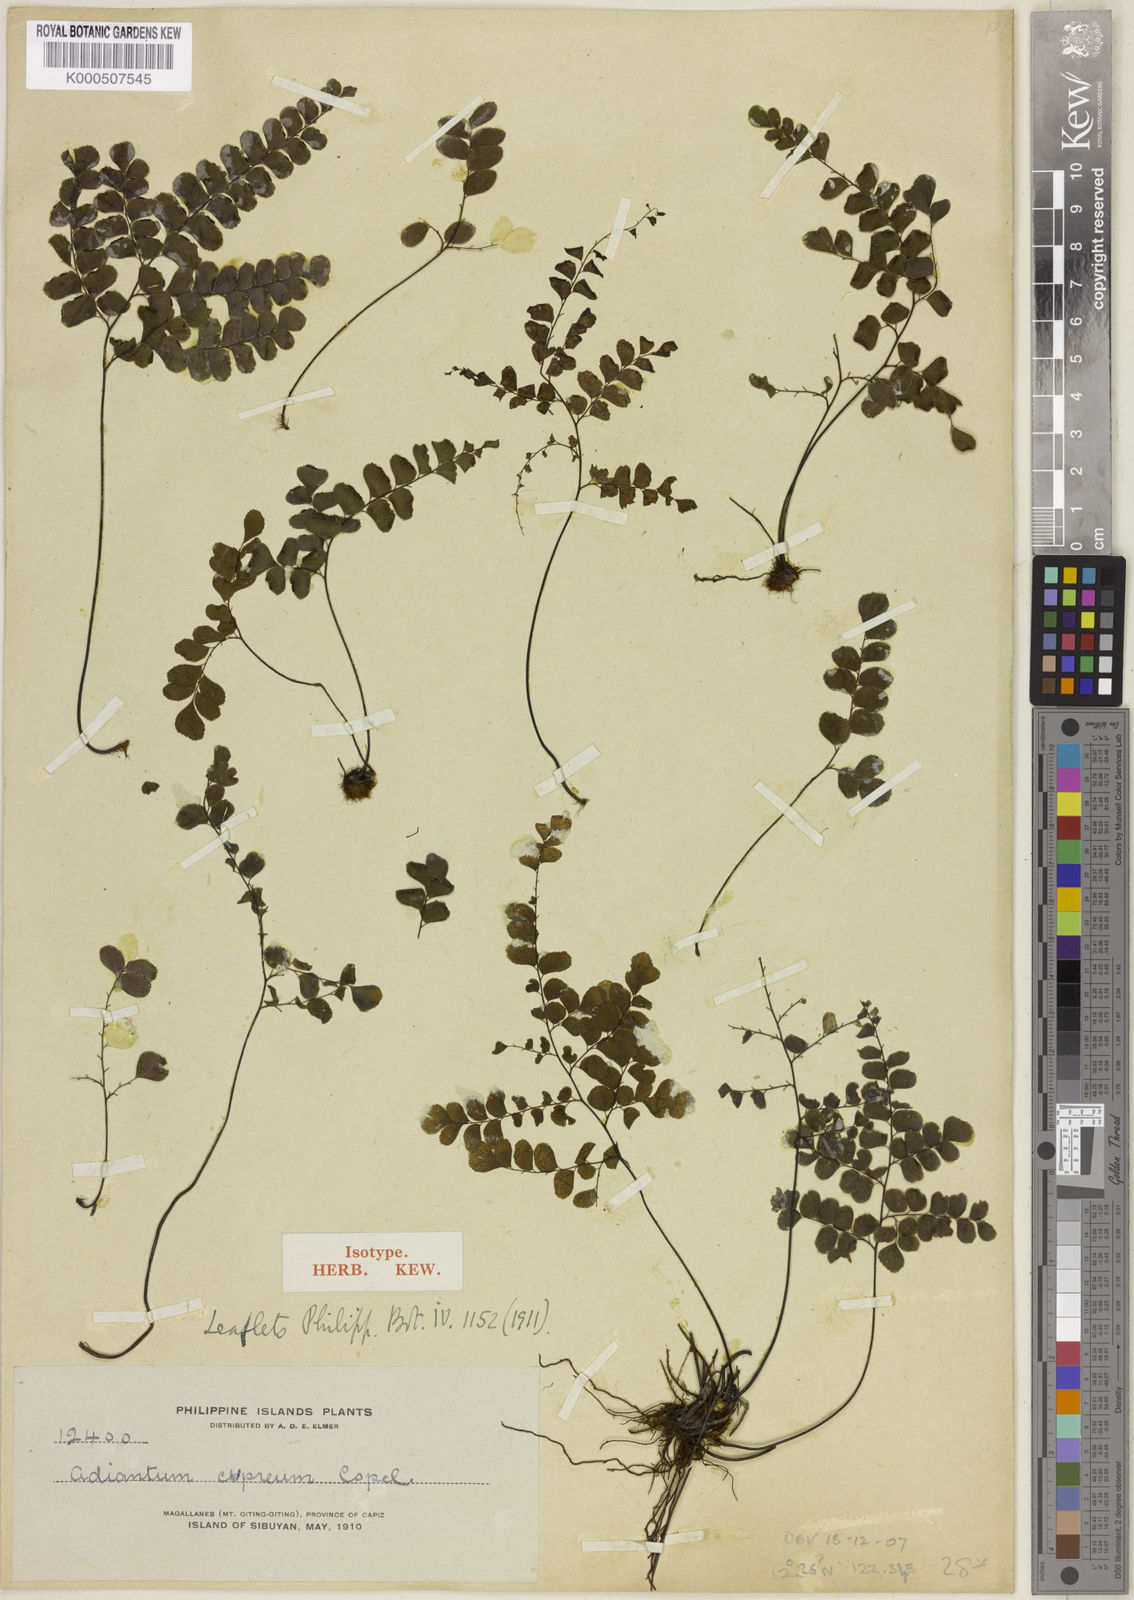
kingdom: Plantae
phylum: Tracheophyta
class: Polypodiopsida
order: Polypodiales
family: Pteridaceae
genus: Adiantum
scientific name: Adiantum cupreum
